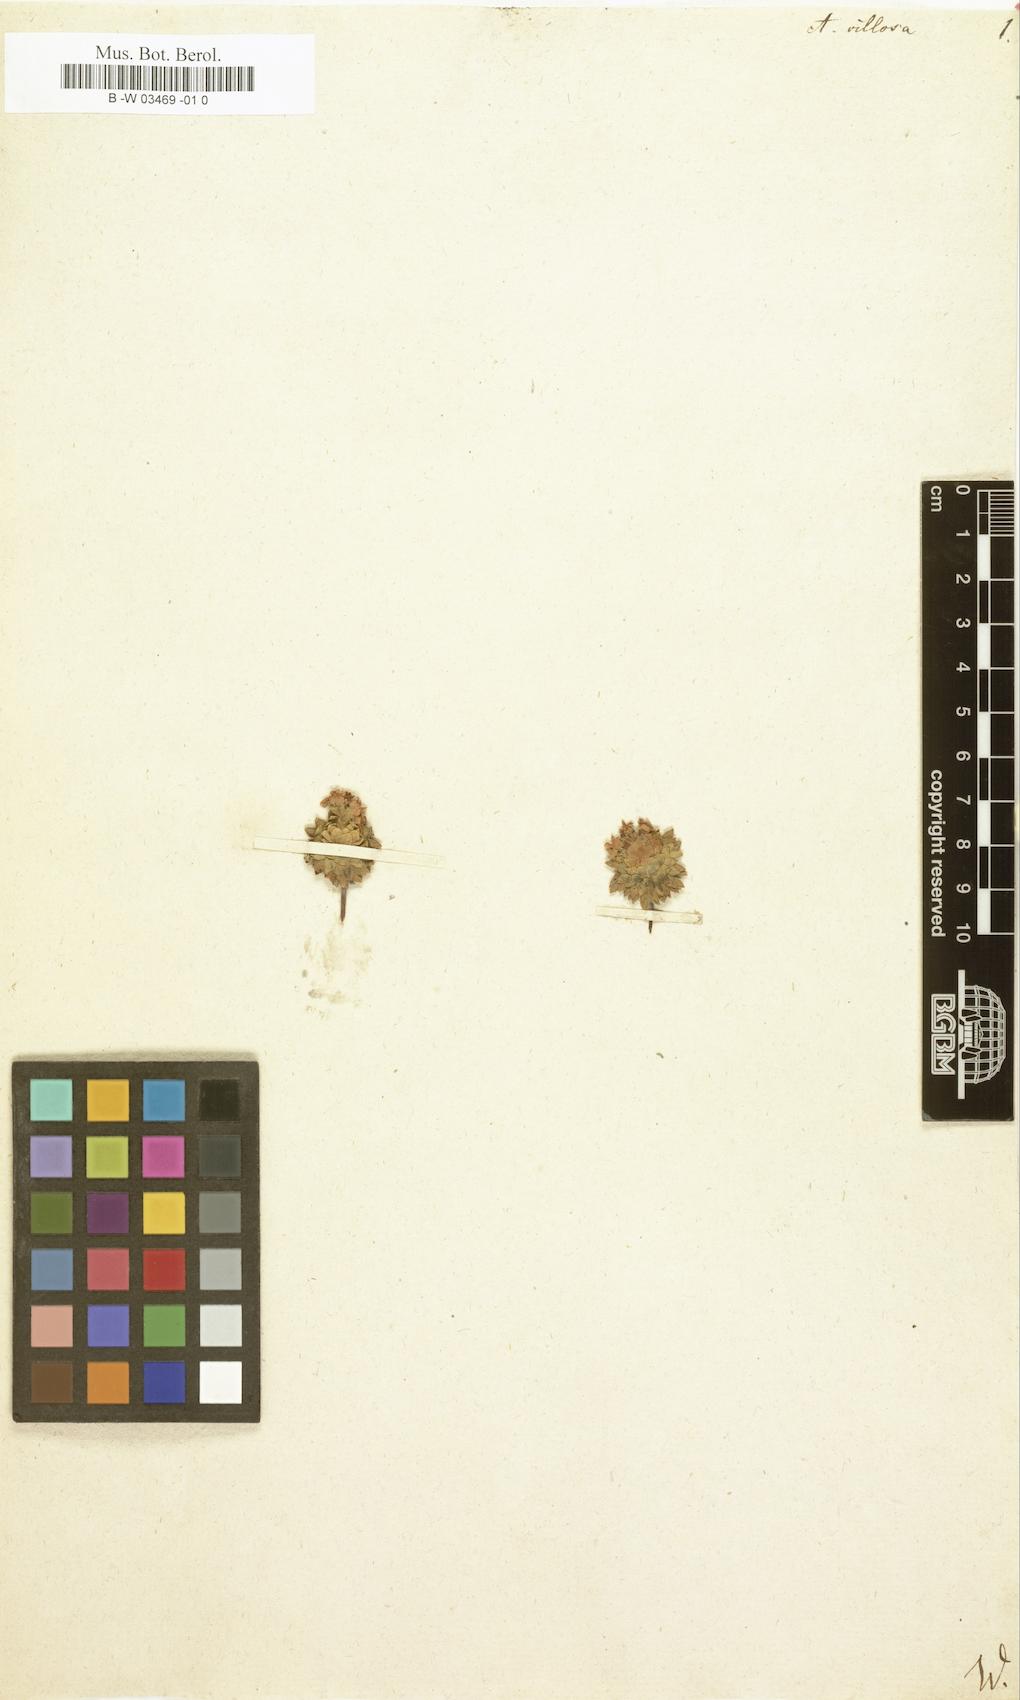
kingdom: Plantae
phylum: Tracheophyta
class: Magnoliopsida
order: Ericales
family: Primulaceae
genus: Androsace
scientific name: Androsace villosa
